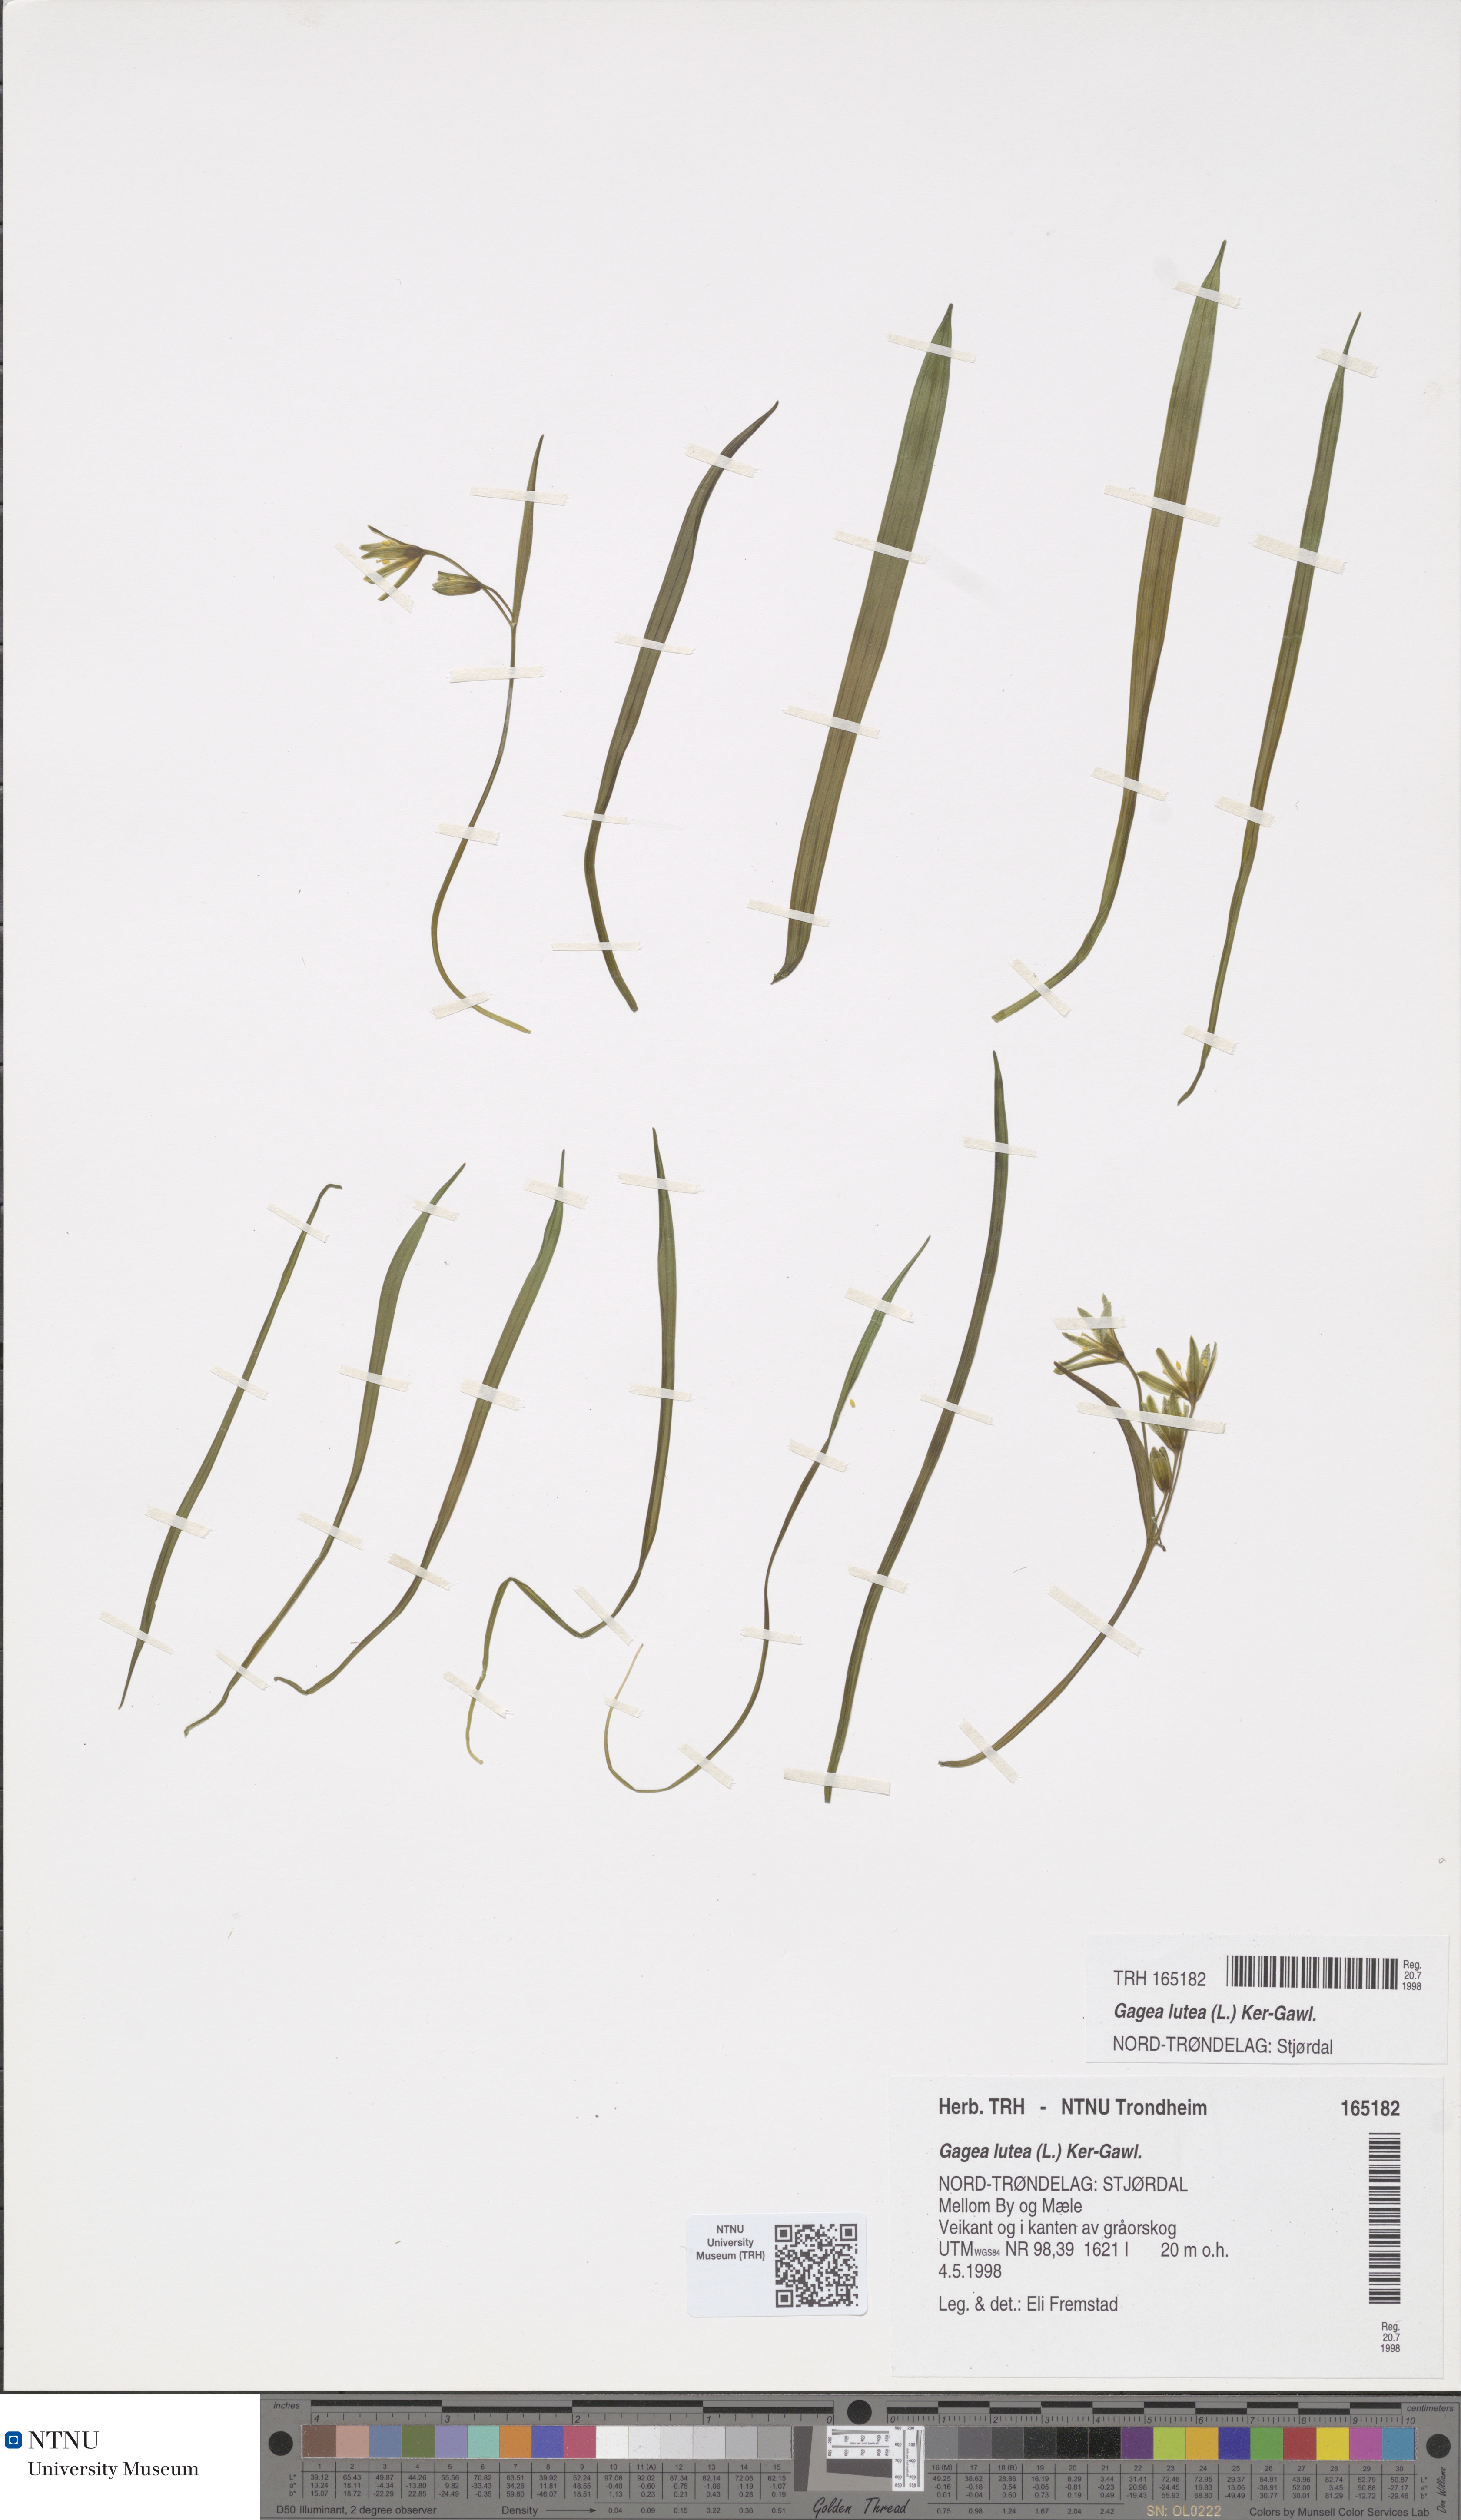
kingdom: Plantae
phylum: Tracheophyta
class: Liliopsida
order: Liliales
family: Liliaceae
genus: Gagea
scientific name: Gagea lutea
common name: Yellow star-of-bethlehem
